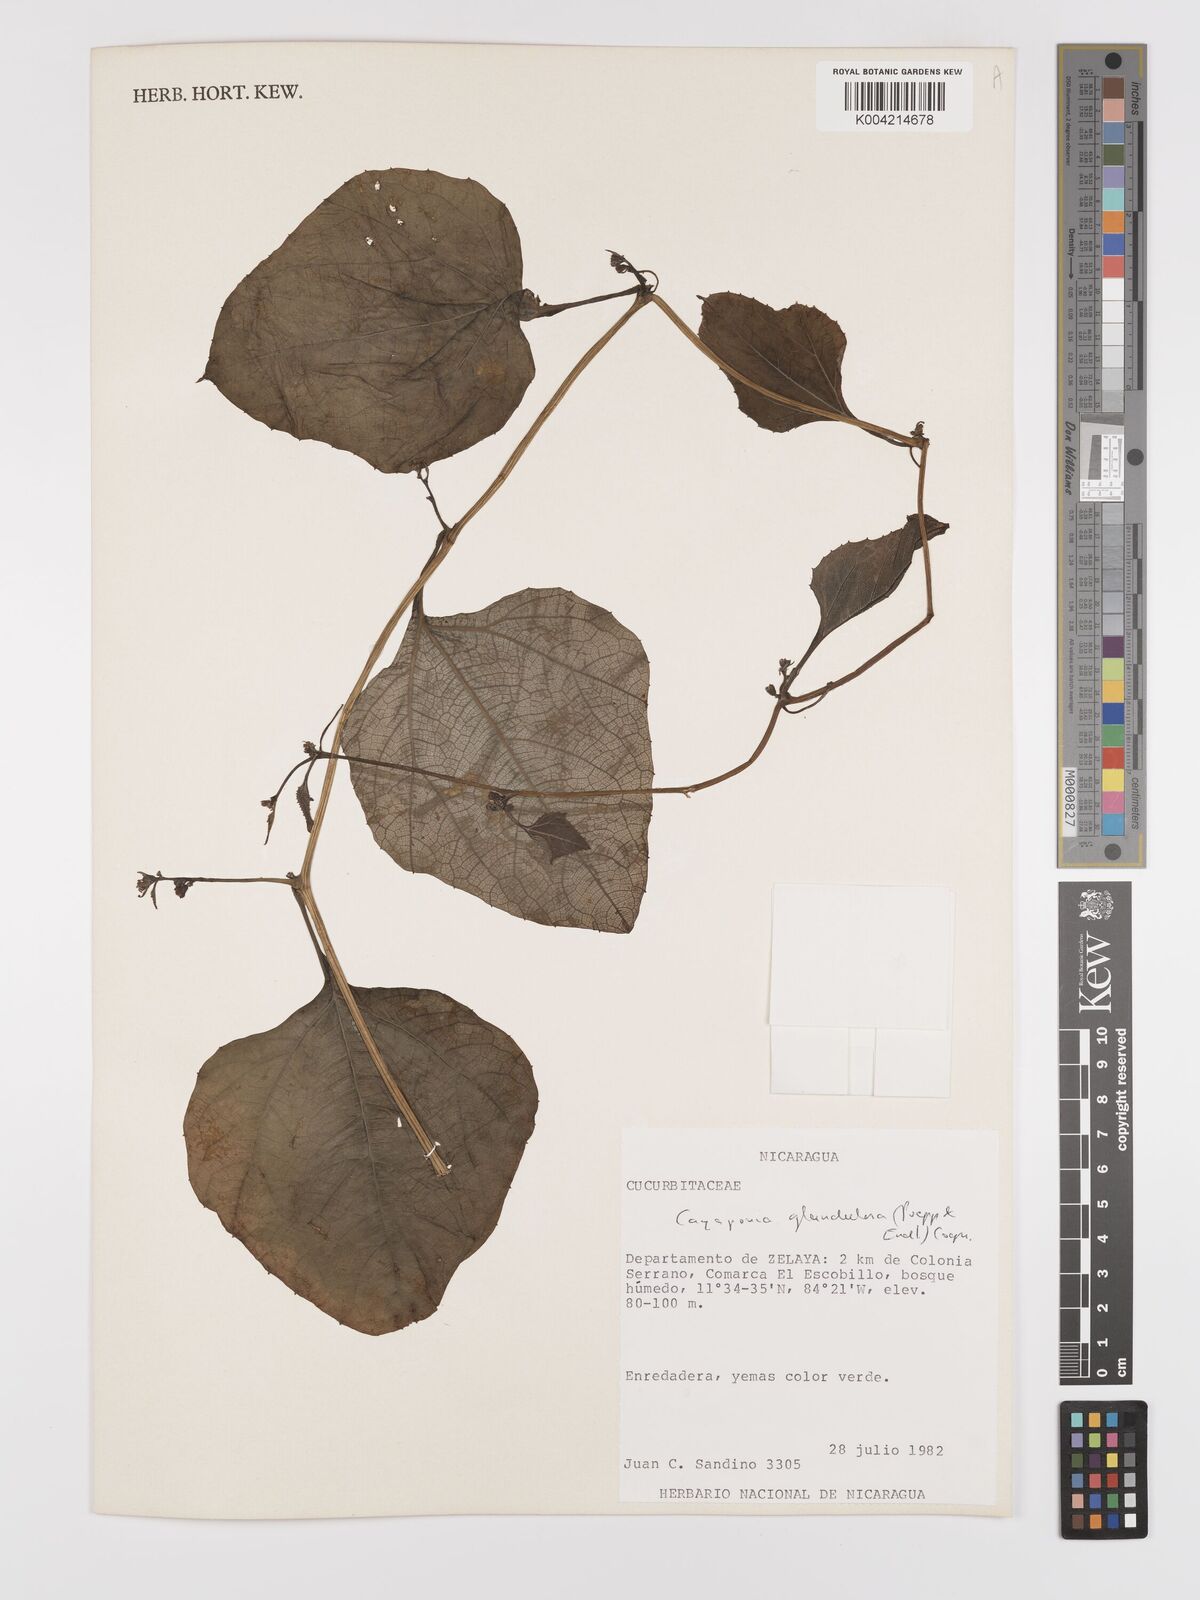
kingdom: Plantae
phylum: Tracheophyta
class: Magnoliopsida
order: Cucurbitales
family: Cucurbitaceae
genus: Cayaponia
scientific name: Cayaponia glandulosa
